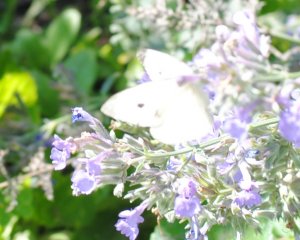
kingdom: Animalia
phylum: Arthropoda
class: Insecta
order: Lepidoptera
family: Pieridae
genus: Pieris
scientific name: Pieris rapae
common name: Cabbage White
